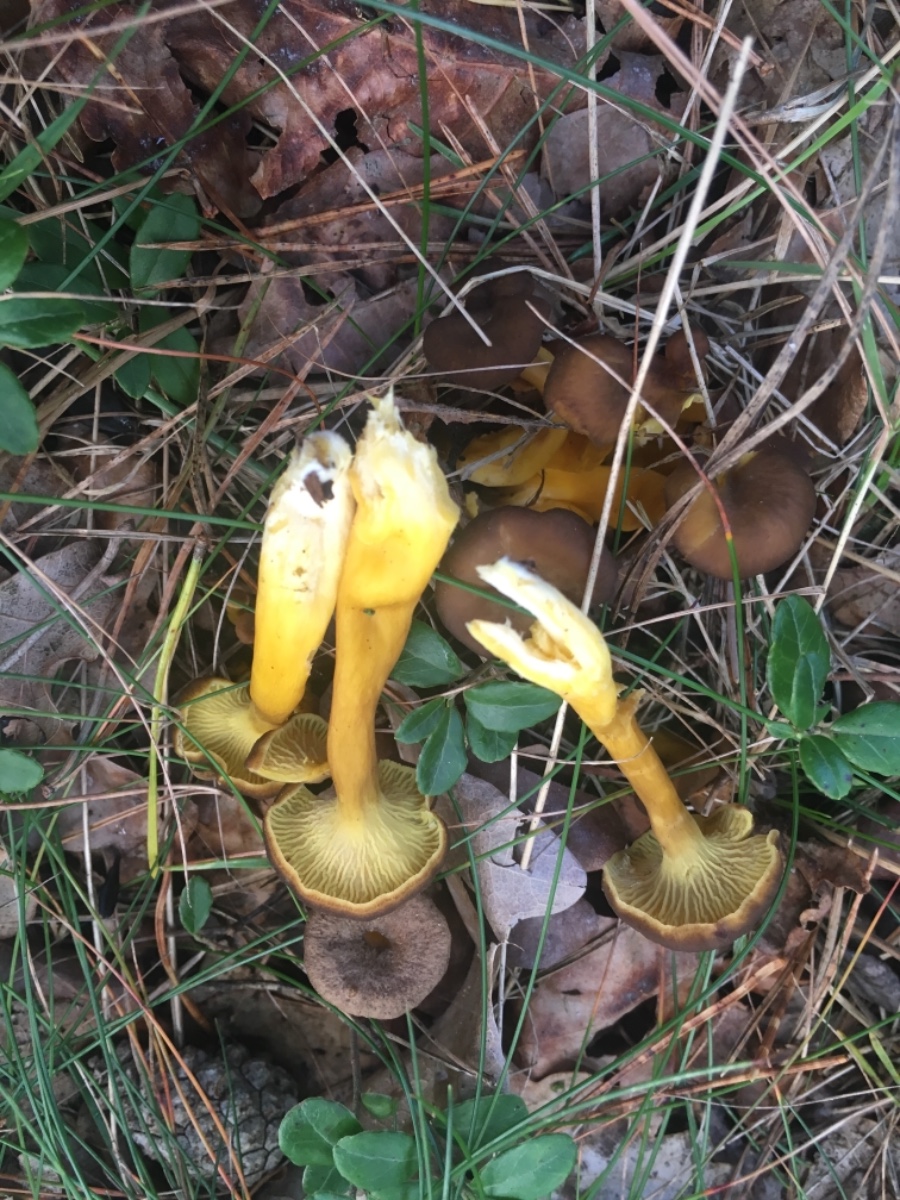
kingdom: Fungi
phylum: Basidiomycota
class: Agaricomycetes
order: Cantharellales
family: Hydnaceae
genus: Craterellus
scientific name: Craterellus tubaeformis
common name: tragt-kantarel
